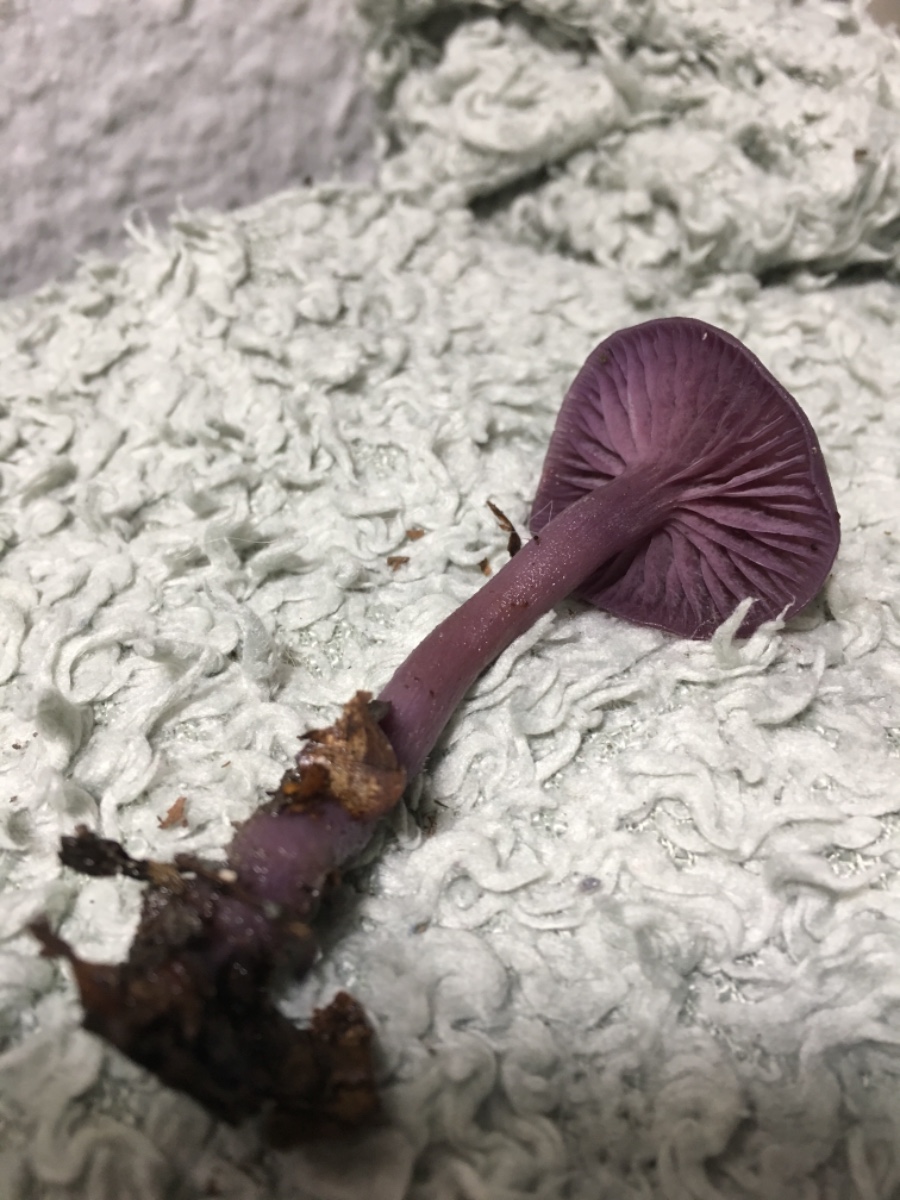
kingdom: Fungi
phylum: Basidiomycota
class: Agaricomycetes
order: Agaricales
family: Hydnangiaceae
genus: Laccaria
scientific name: Laccaria amethystina
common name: violet ametysthat
